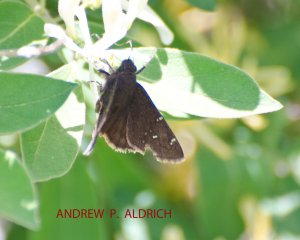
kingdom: Animalia
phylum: Arthropoda
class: Insecta
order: Lepidoptera
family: Hesperiidae
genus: Autochton
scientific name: Autochton
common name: Northern Cloudywing
